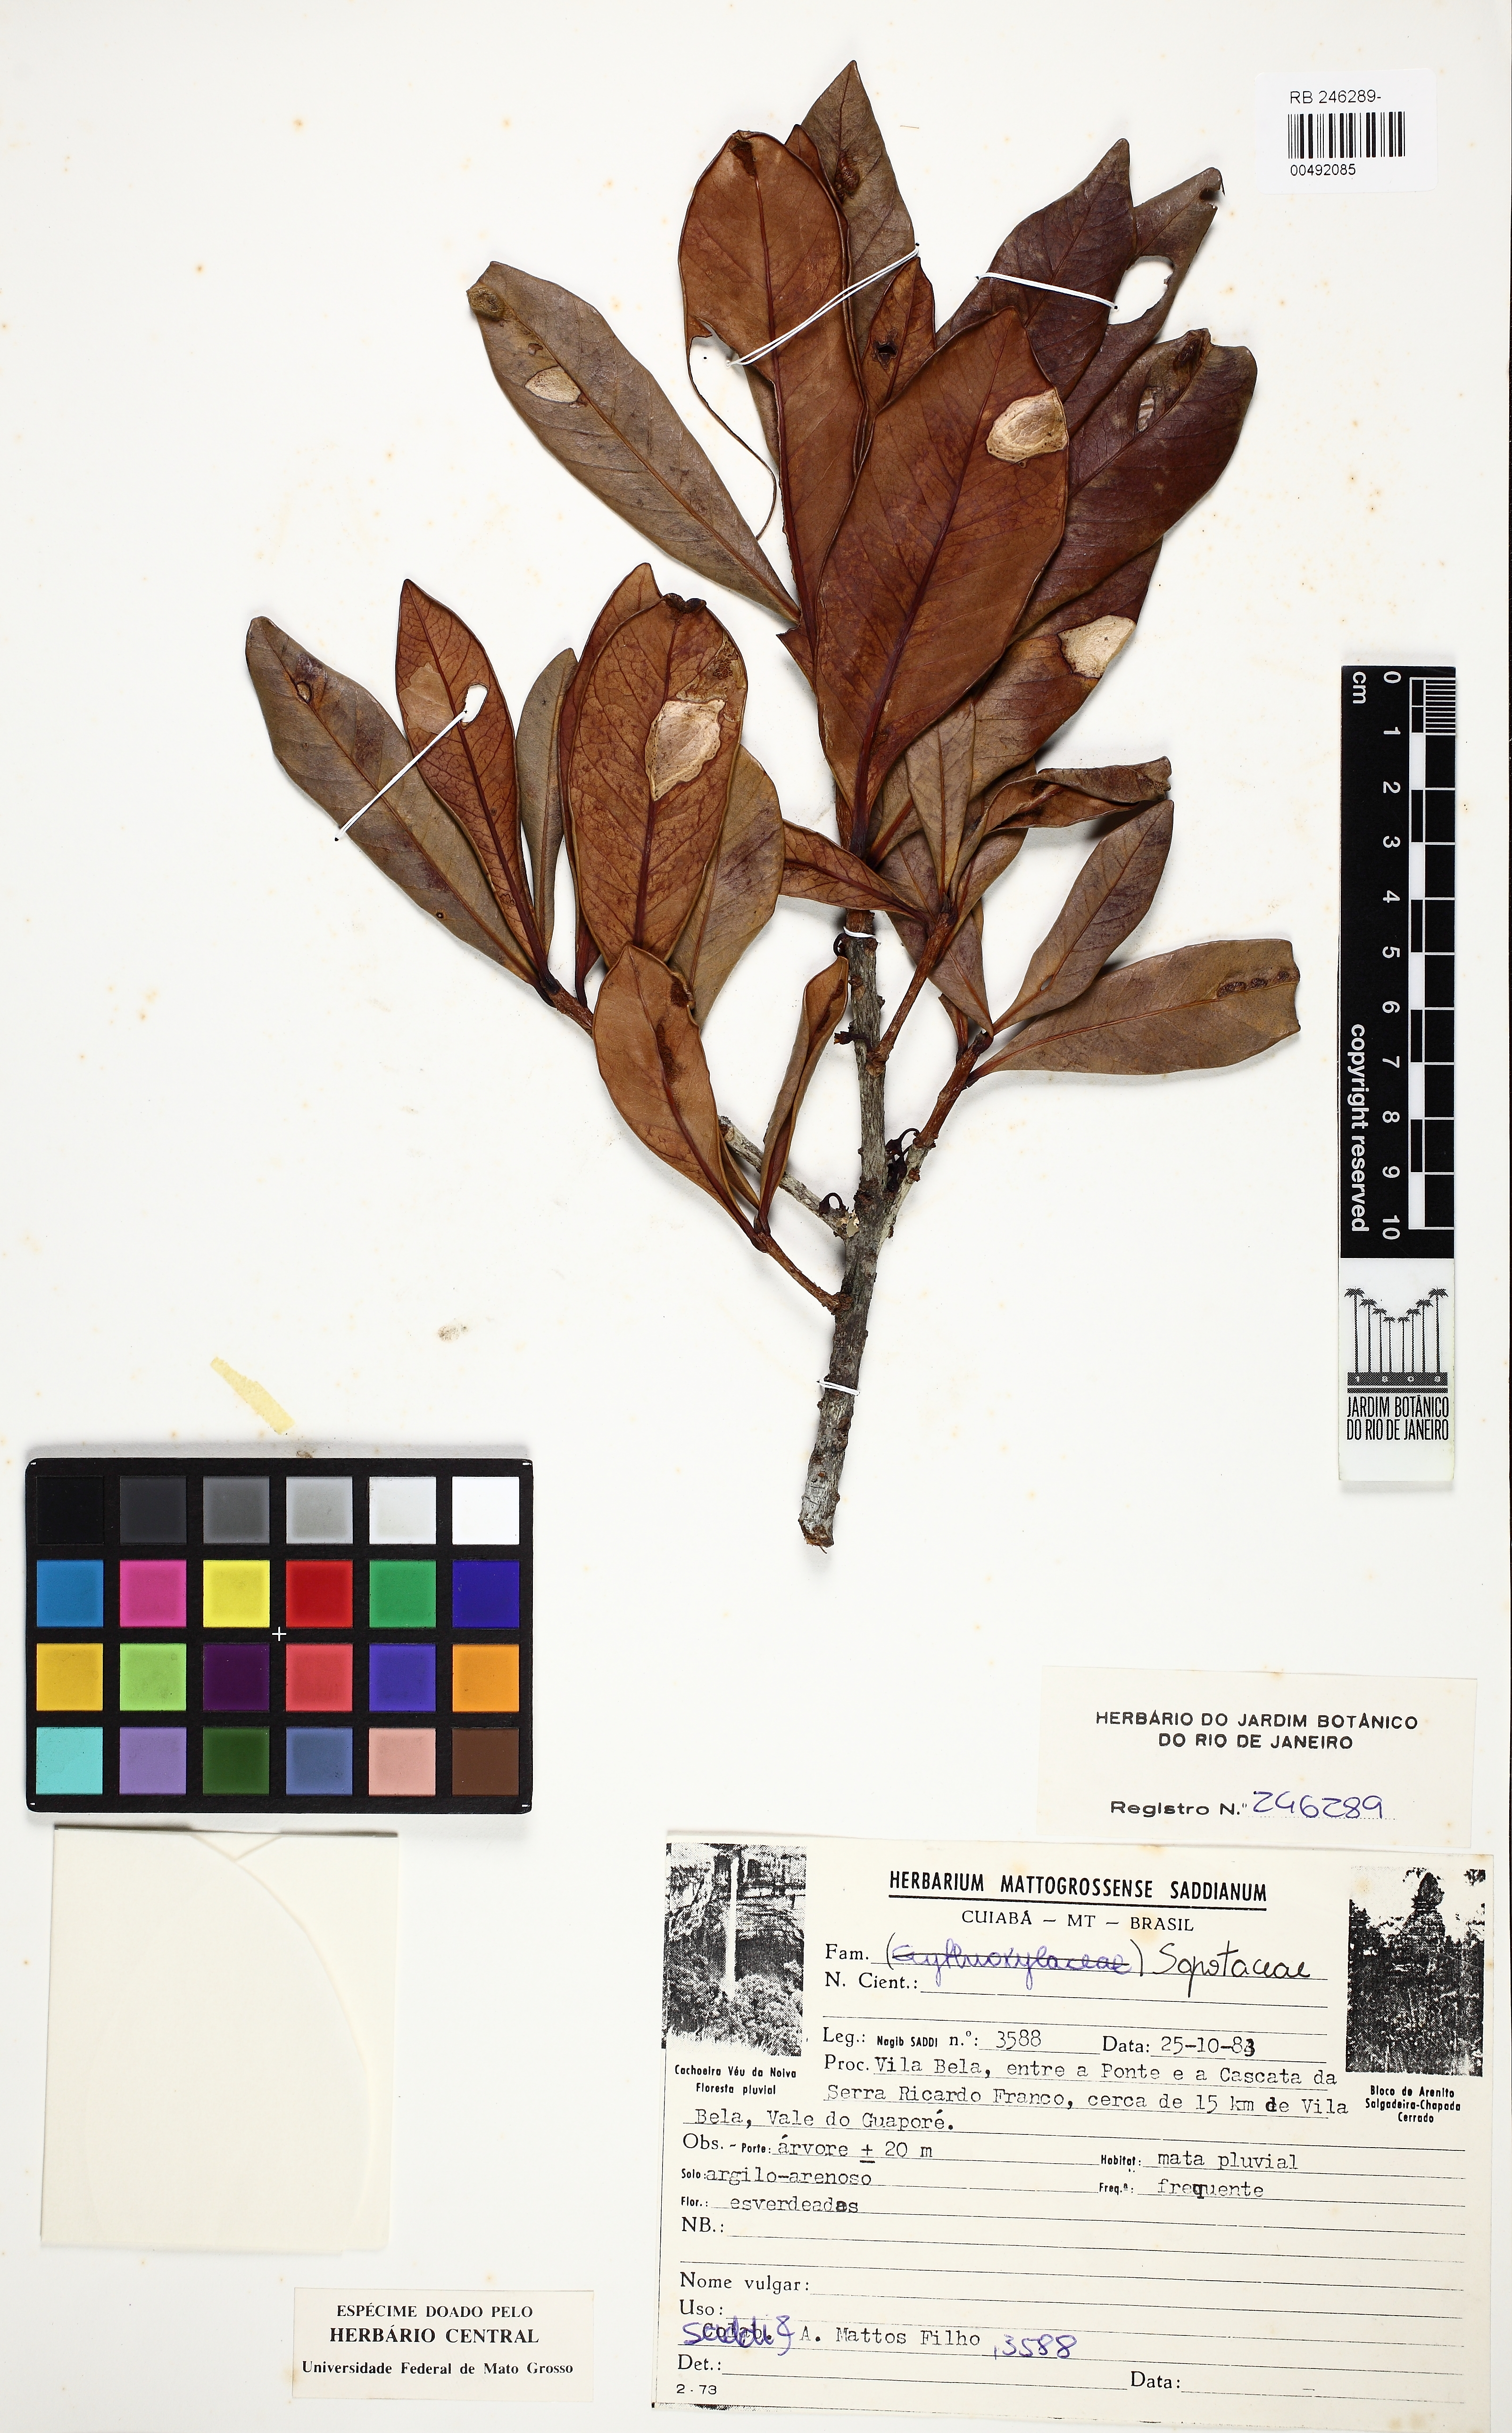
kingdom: Plantae
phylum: Tracheophyta
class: Magnoliopsida
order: Ericales
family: Sapotaceae
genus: Elaeoluma
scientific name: Elaeoluma schomburgkiana
